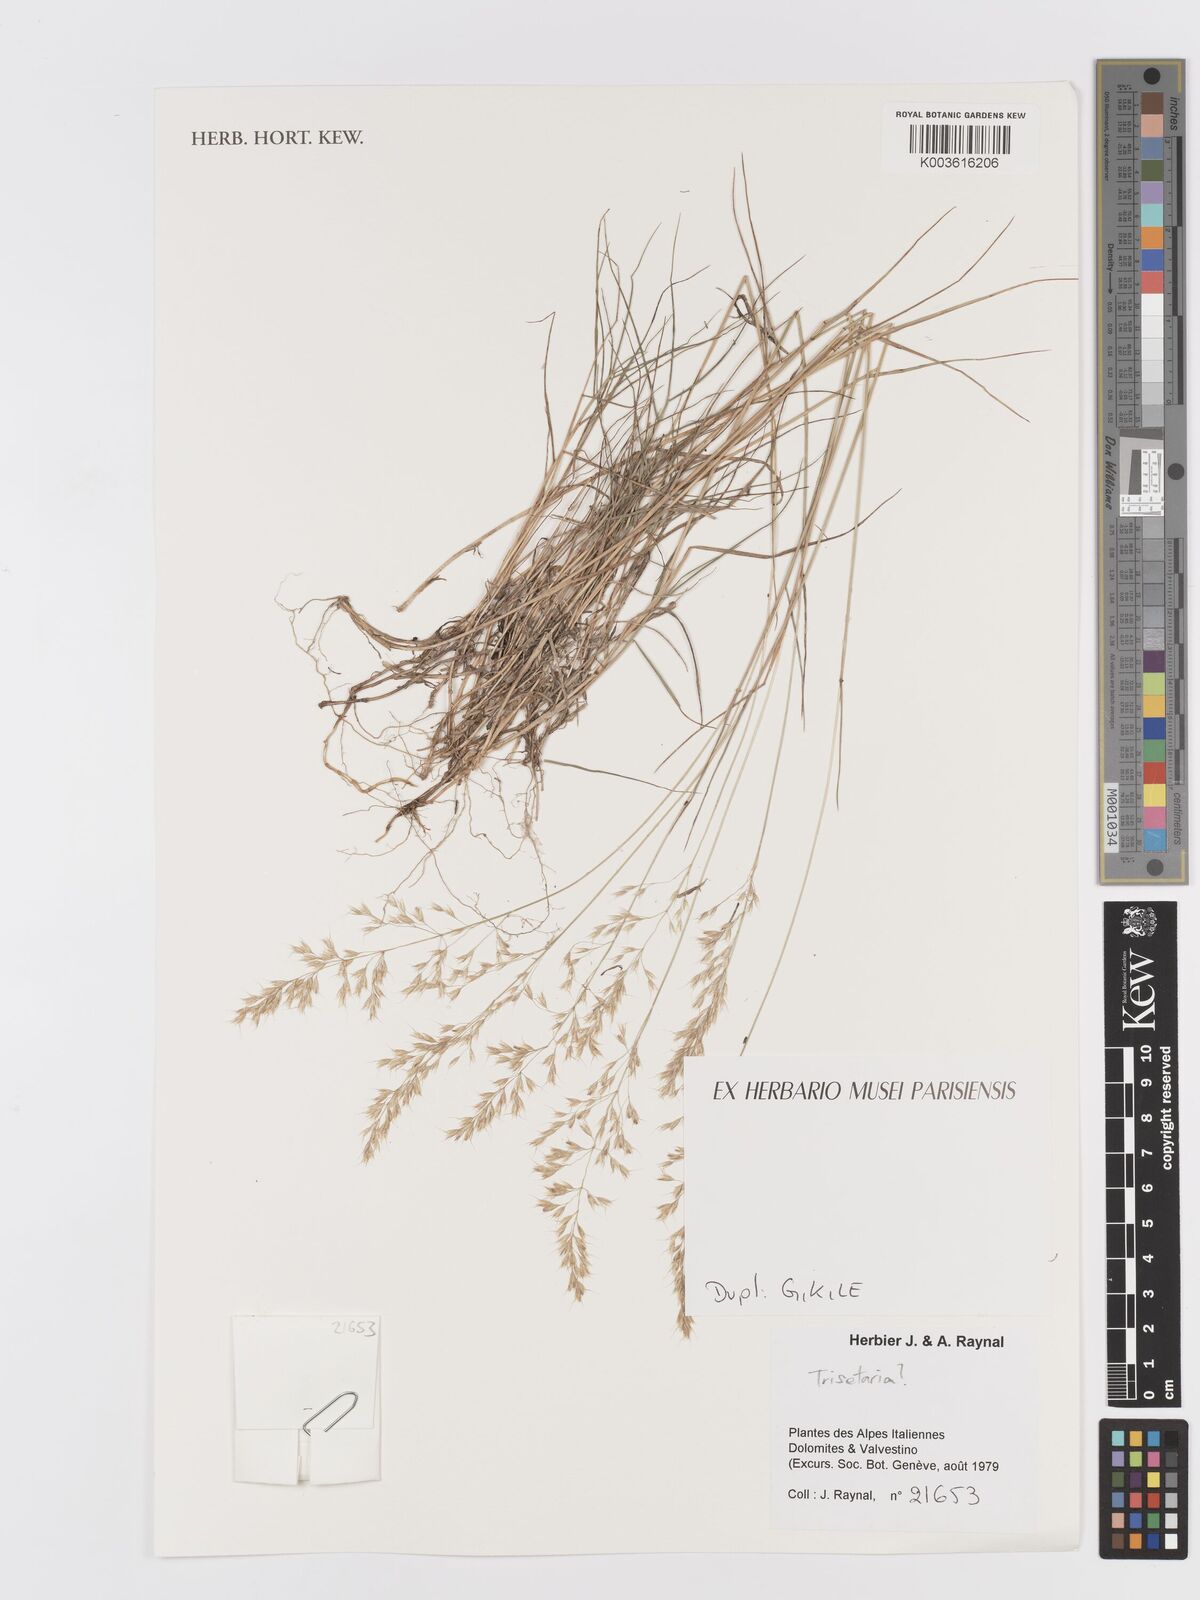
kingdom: Plantae
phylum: Tracheophyta
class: Liliopsida
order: Poales
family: Poaceae
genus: Trisetaria
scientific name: Trisetaria
